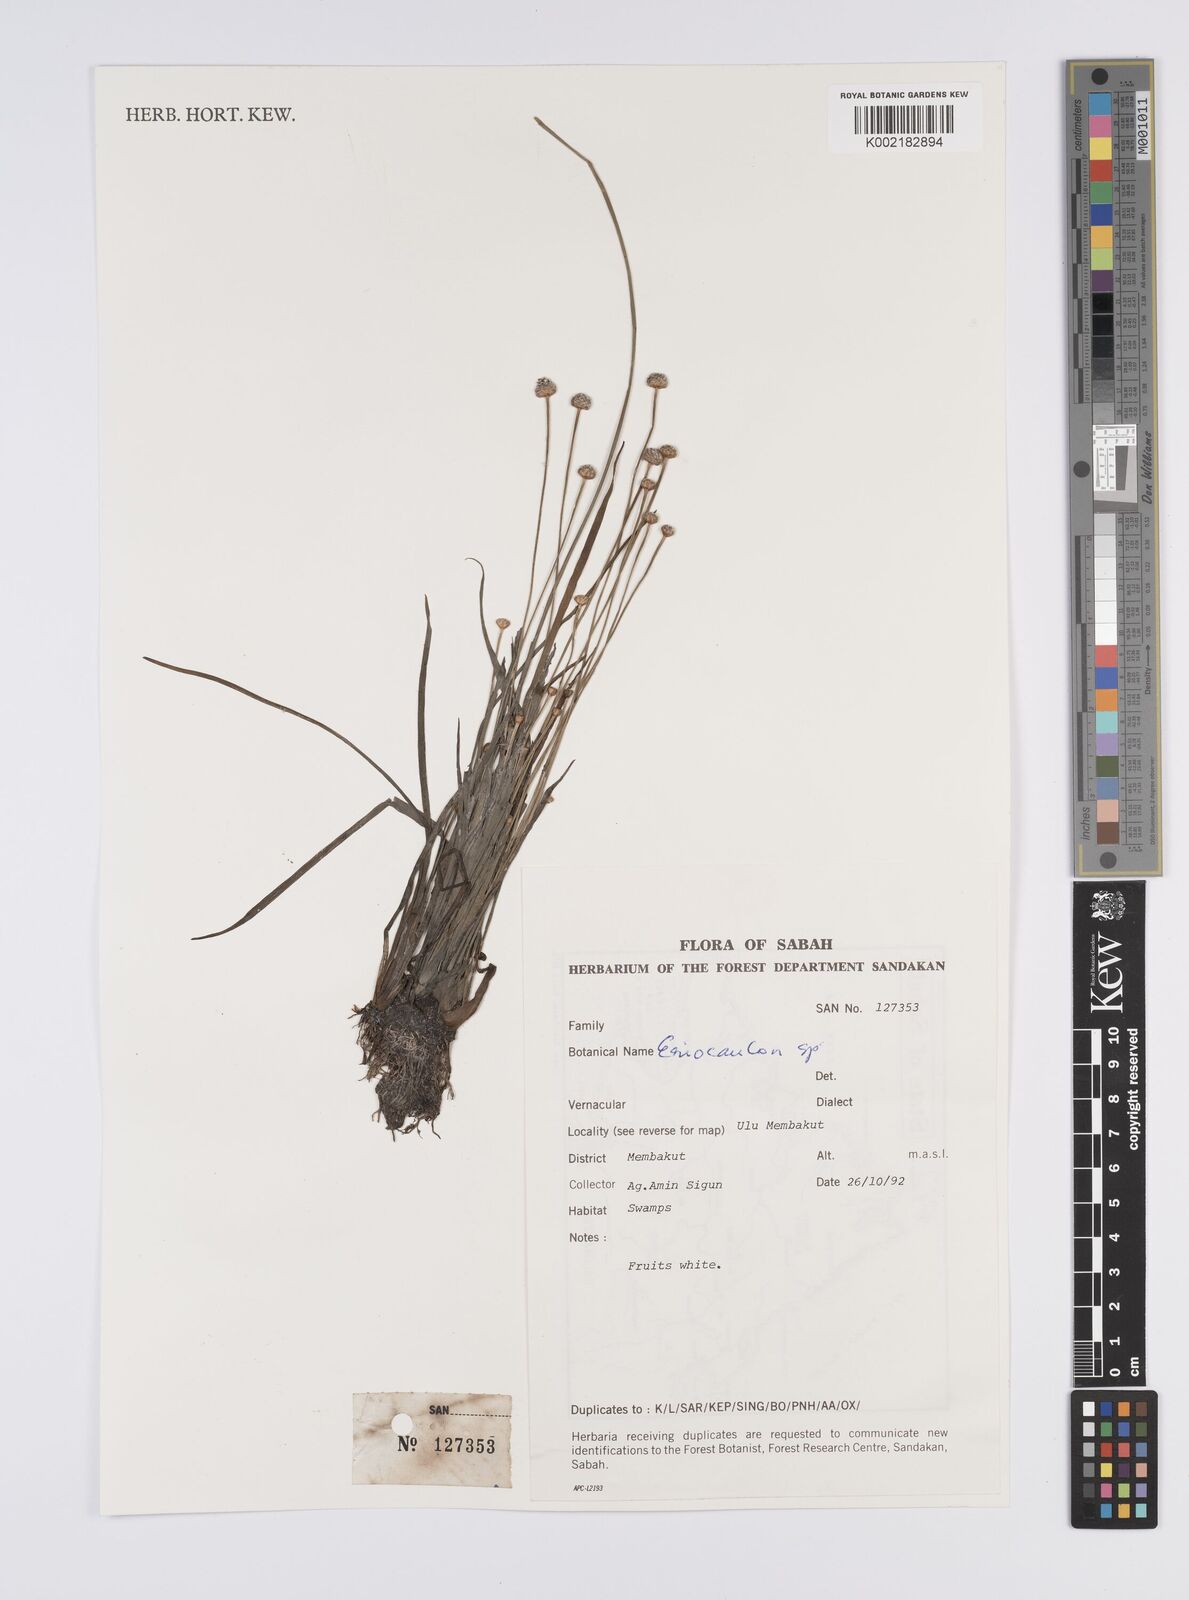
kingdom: Plantae
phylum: Tracheophyta
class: Liliopsida
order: Poales
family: Eriocaulaceae
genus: Eriocaulon
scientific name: Eriocaulon
